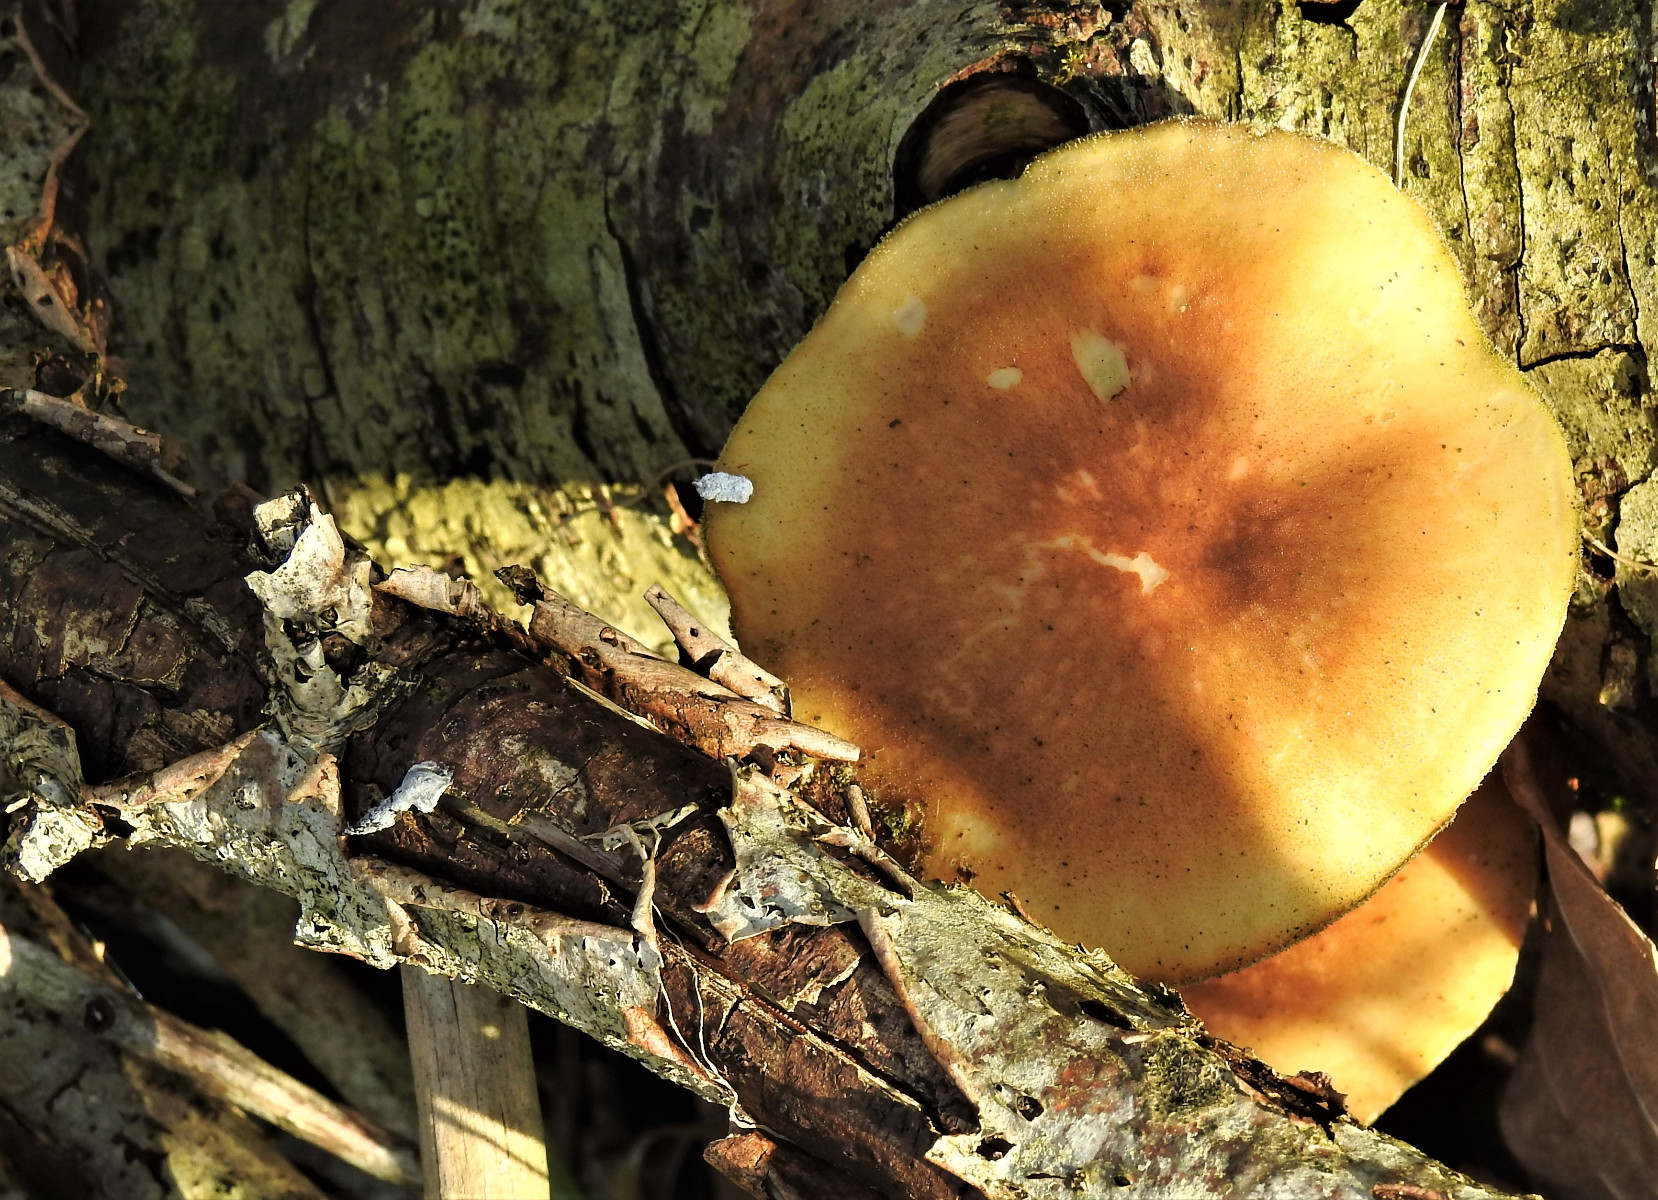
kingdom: Fungi
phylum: Basidiomycota
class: Agaricomycetes
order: Polyporales
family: Polyporaceae
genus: Lentinus
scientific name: Lentinus brumalis
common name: vinter-stilkporesvamp
